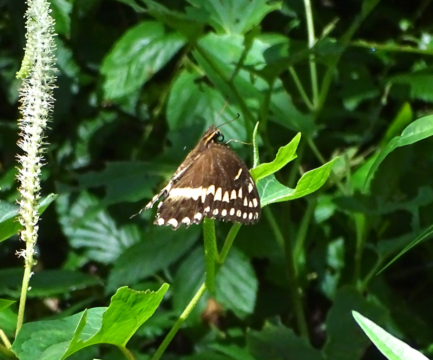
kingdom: Animalia
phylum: Arthropoda
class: Insecta
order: Lepidoptera
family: Papilionidae
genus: Pterourus
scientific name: Pterourus palamedes
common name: Palamedes Swallowtail
